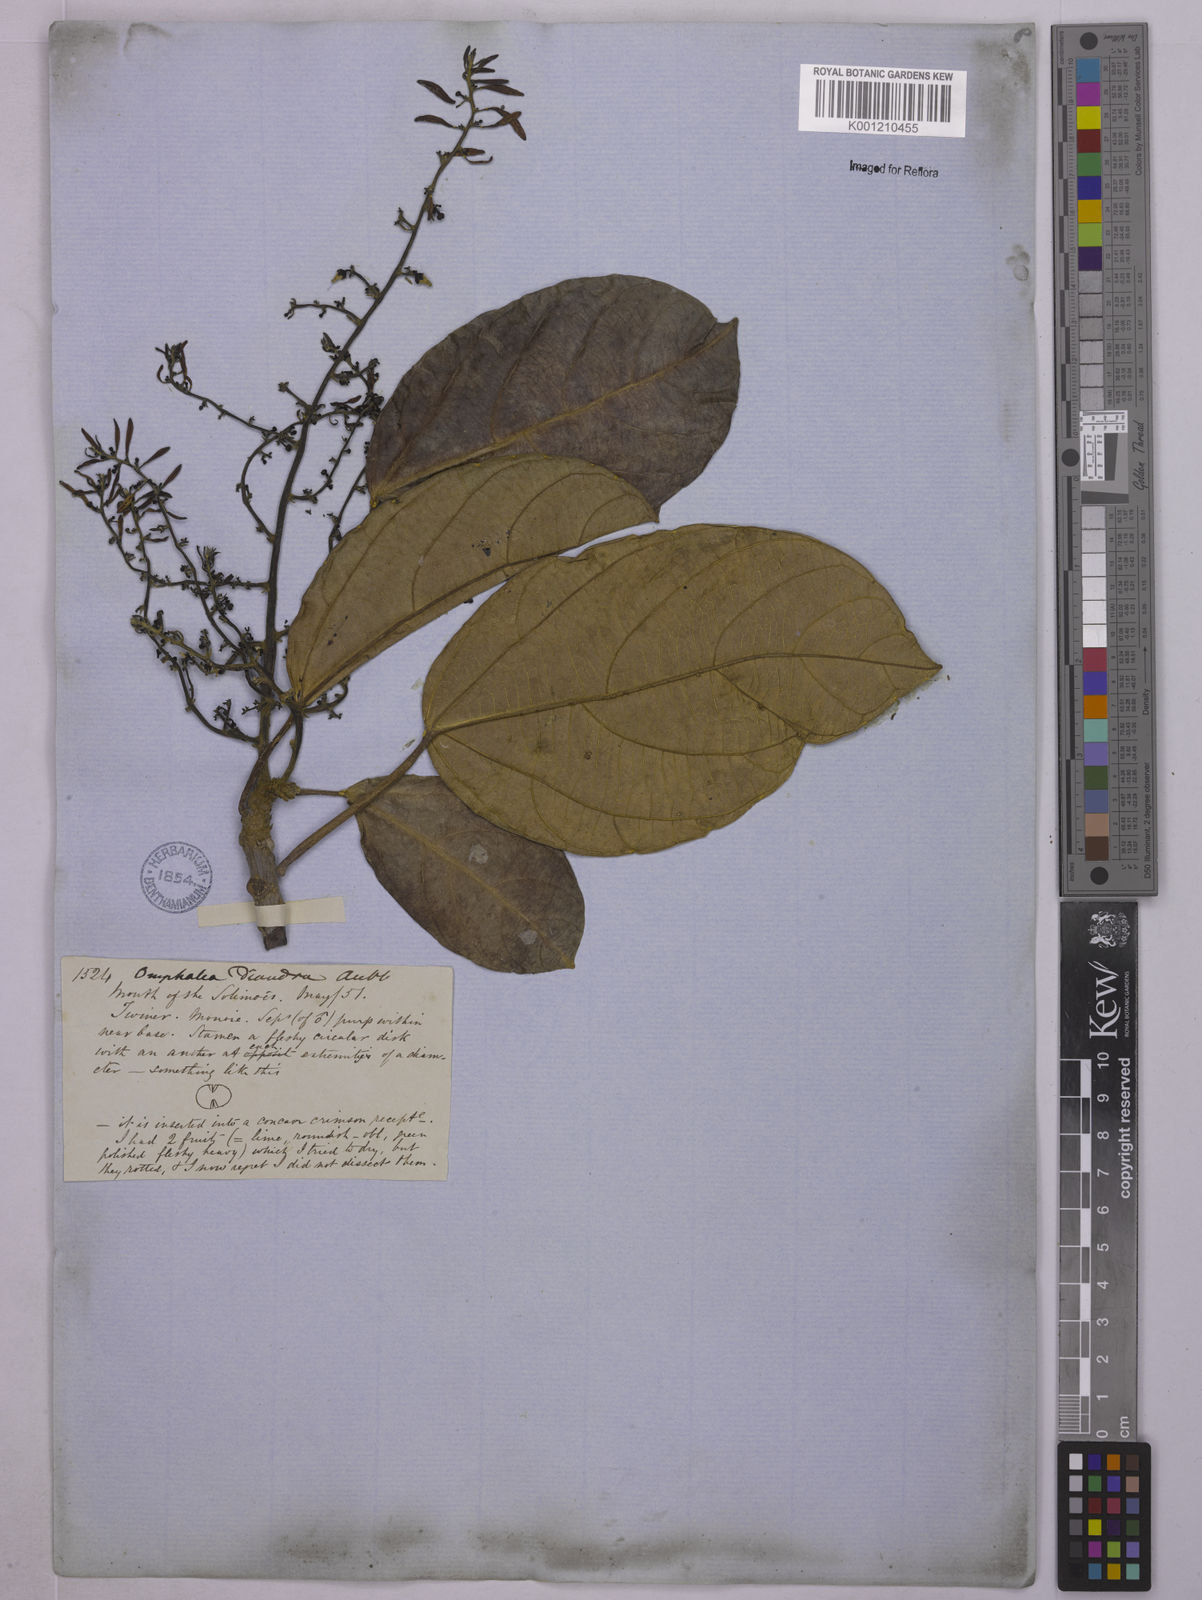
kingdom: Plantae
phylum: Tracheophyta
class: Magnoliopsida
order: Malpighiales
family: Euphorbiaceae
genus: Omphalea
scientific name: Omphalea diandra
